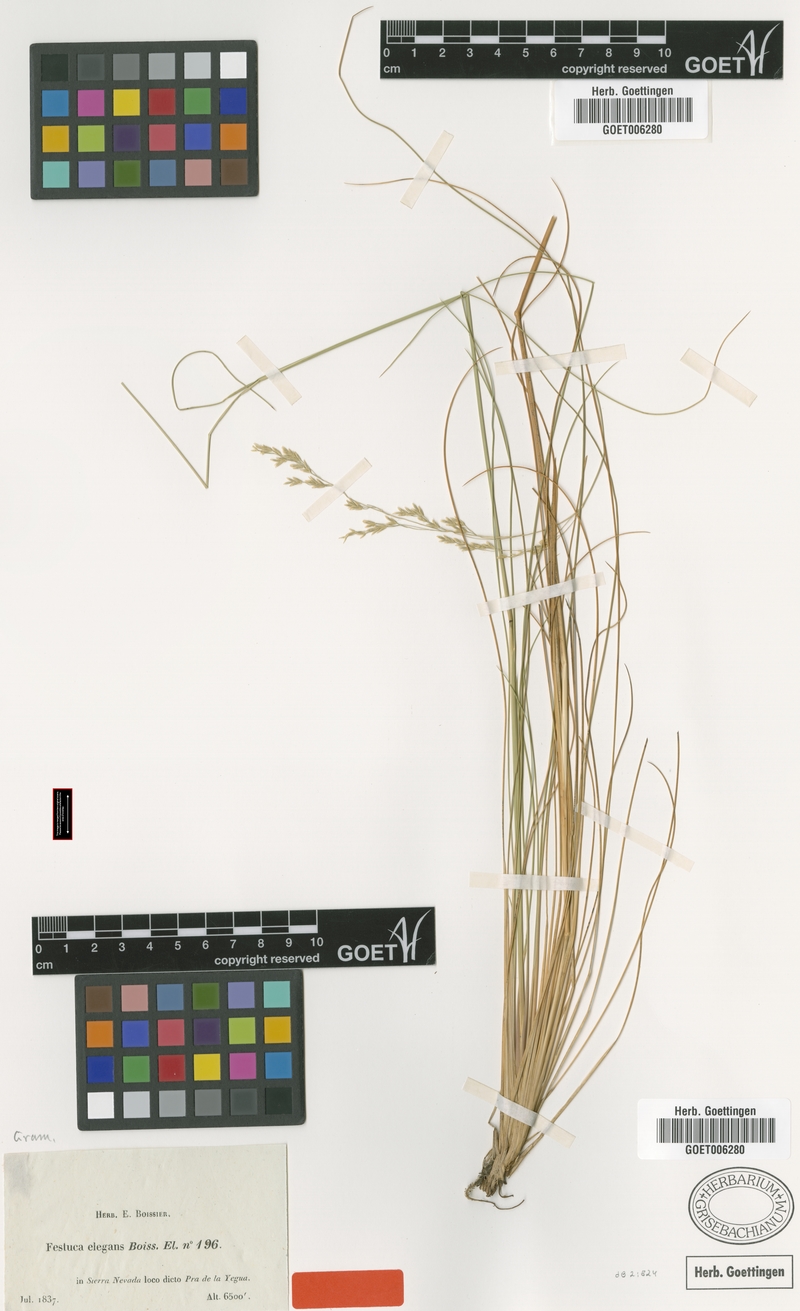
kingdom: Plantae
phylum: Tracheophyta
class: Liliopsida
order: Poales
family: Poaceae
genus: Festuca
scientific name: Festuca elegans
